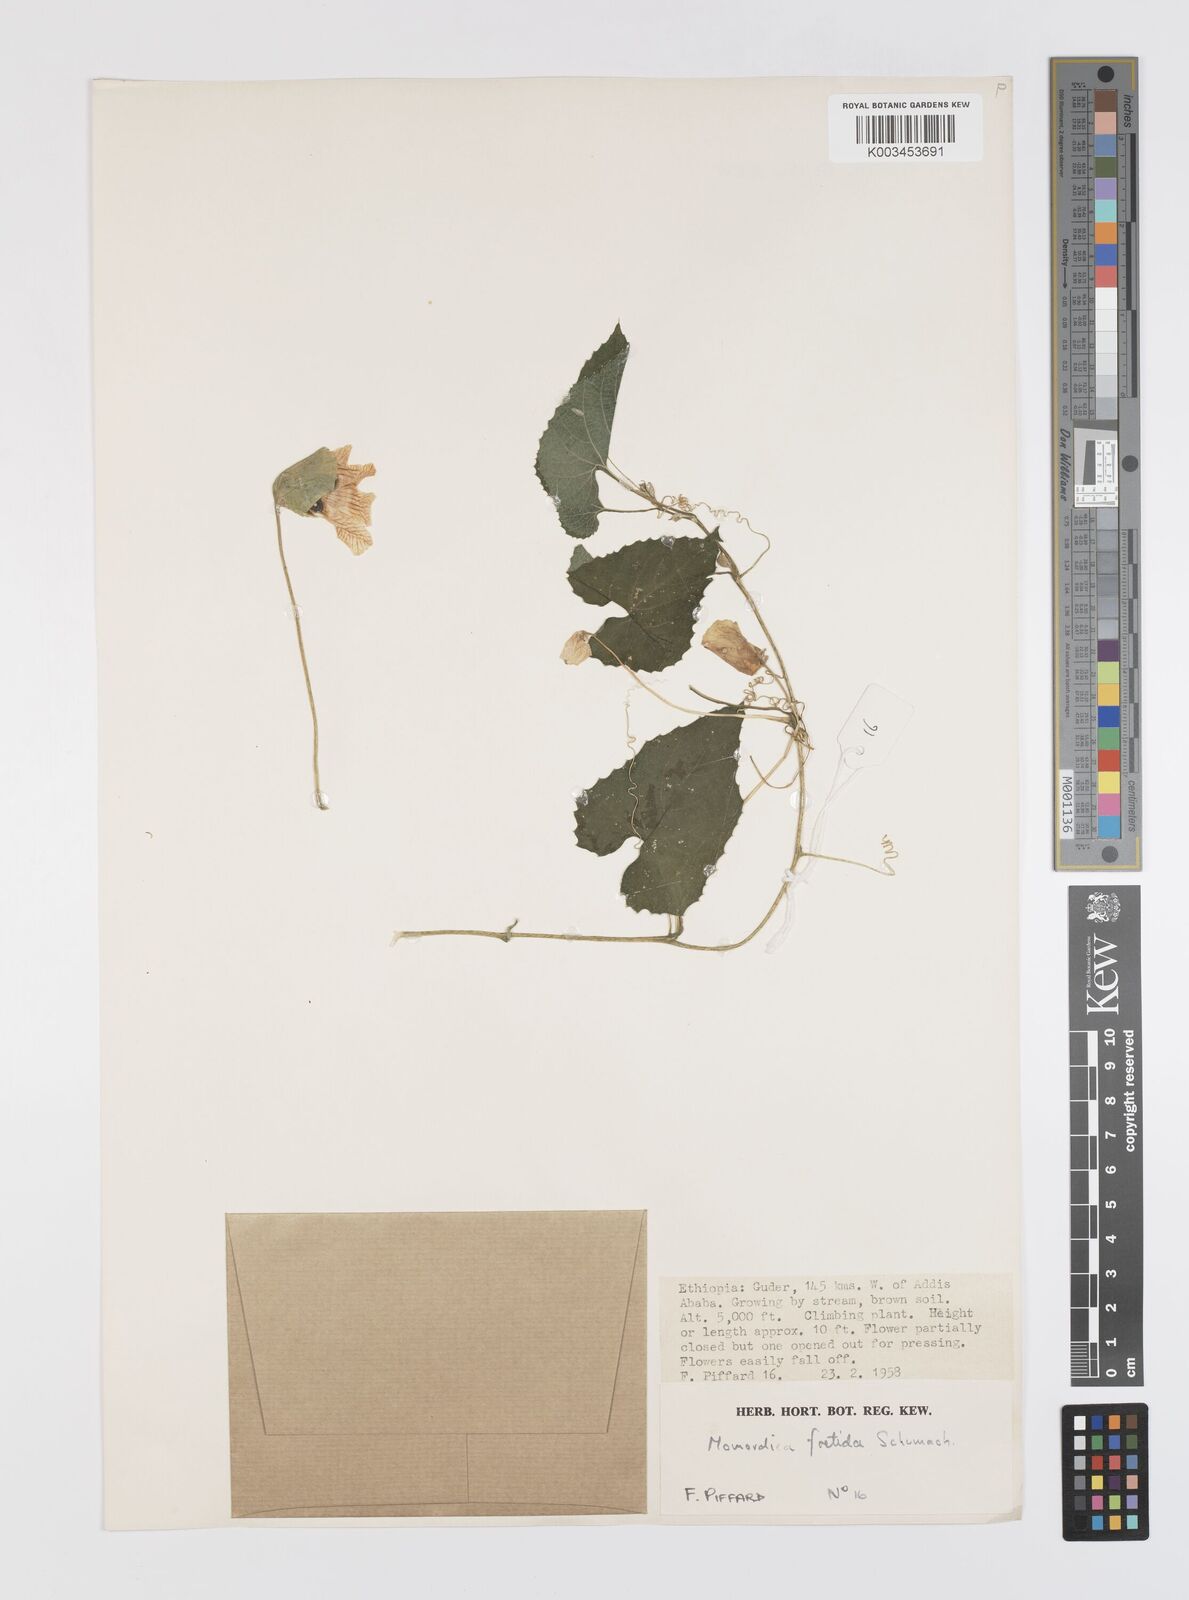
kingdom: Plantae
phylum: Tracheophyta
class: Magnoliopsida
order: Cucurbitales
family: Cucurbitaceae
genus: Momordica
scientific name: Momordica foetida
